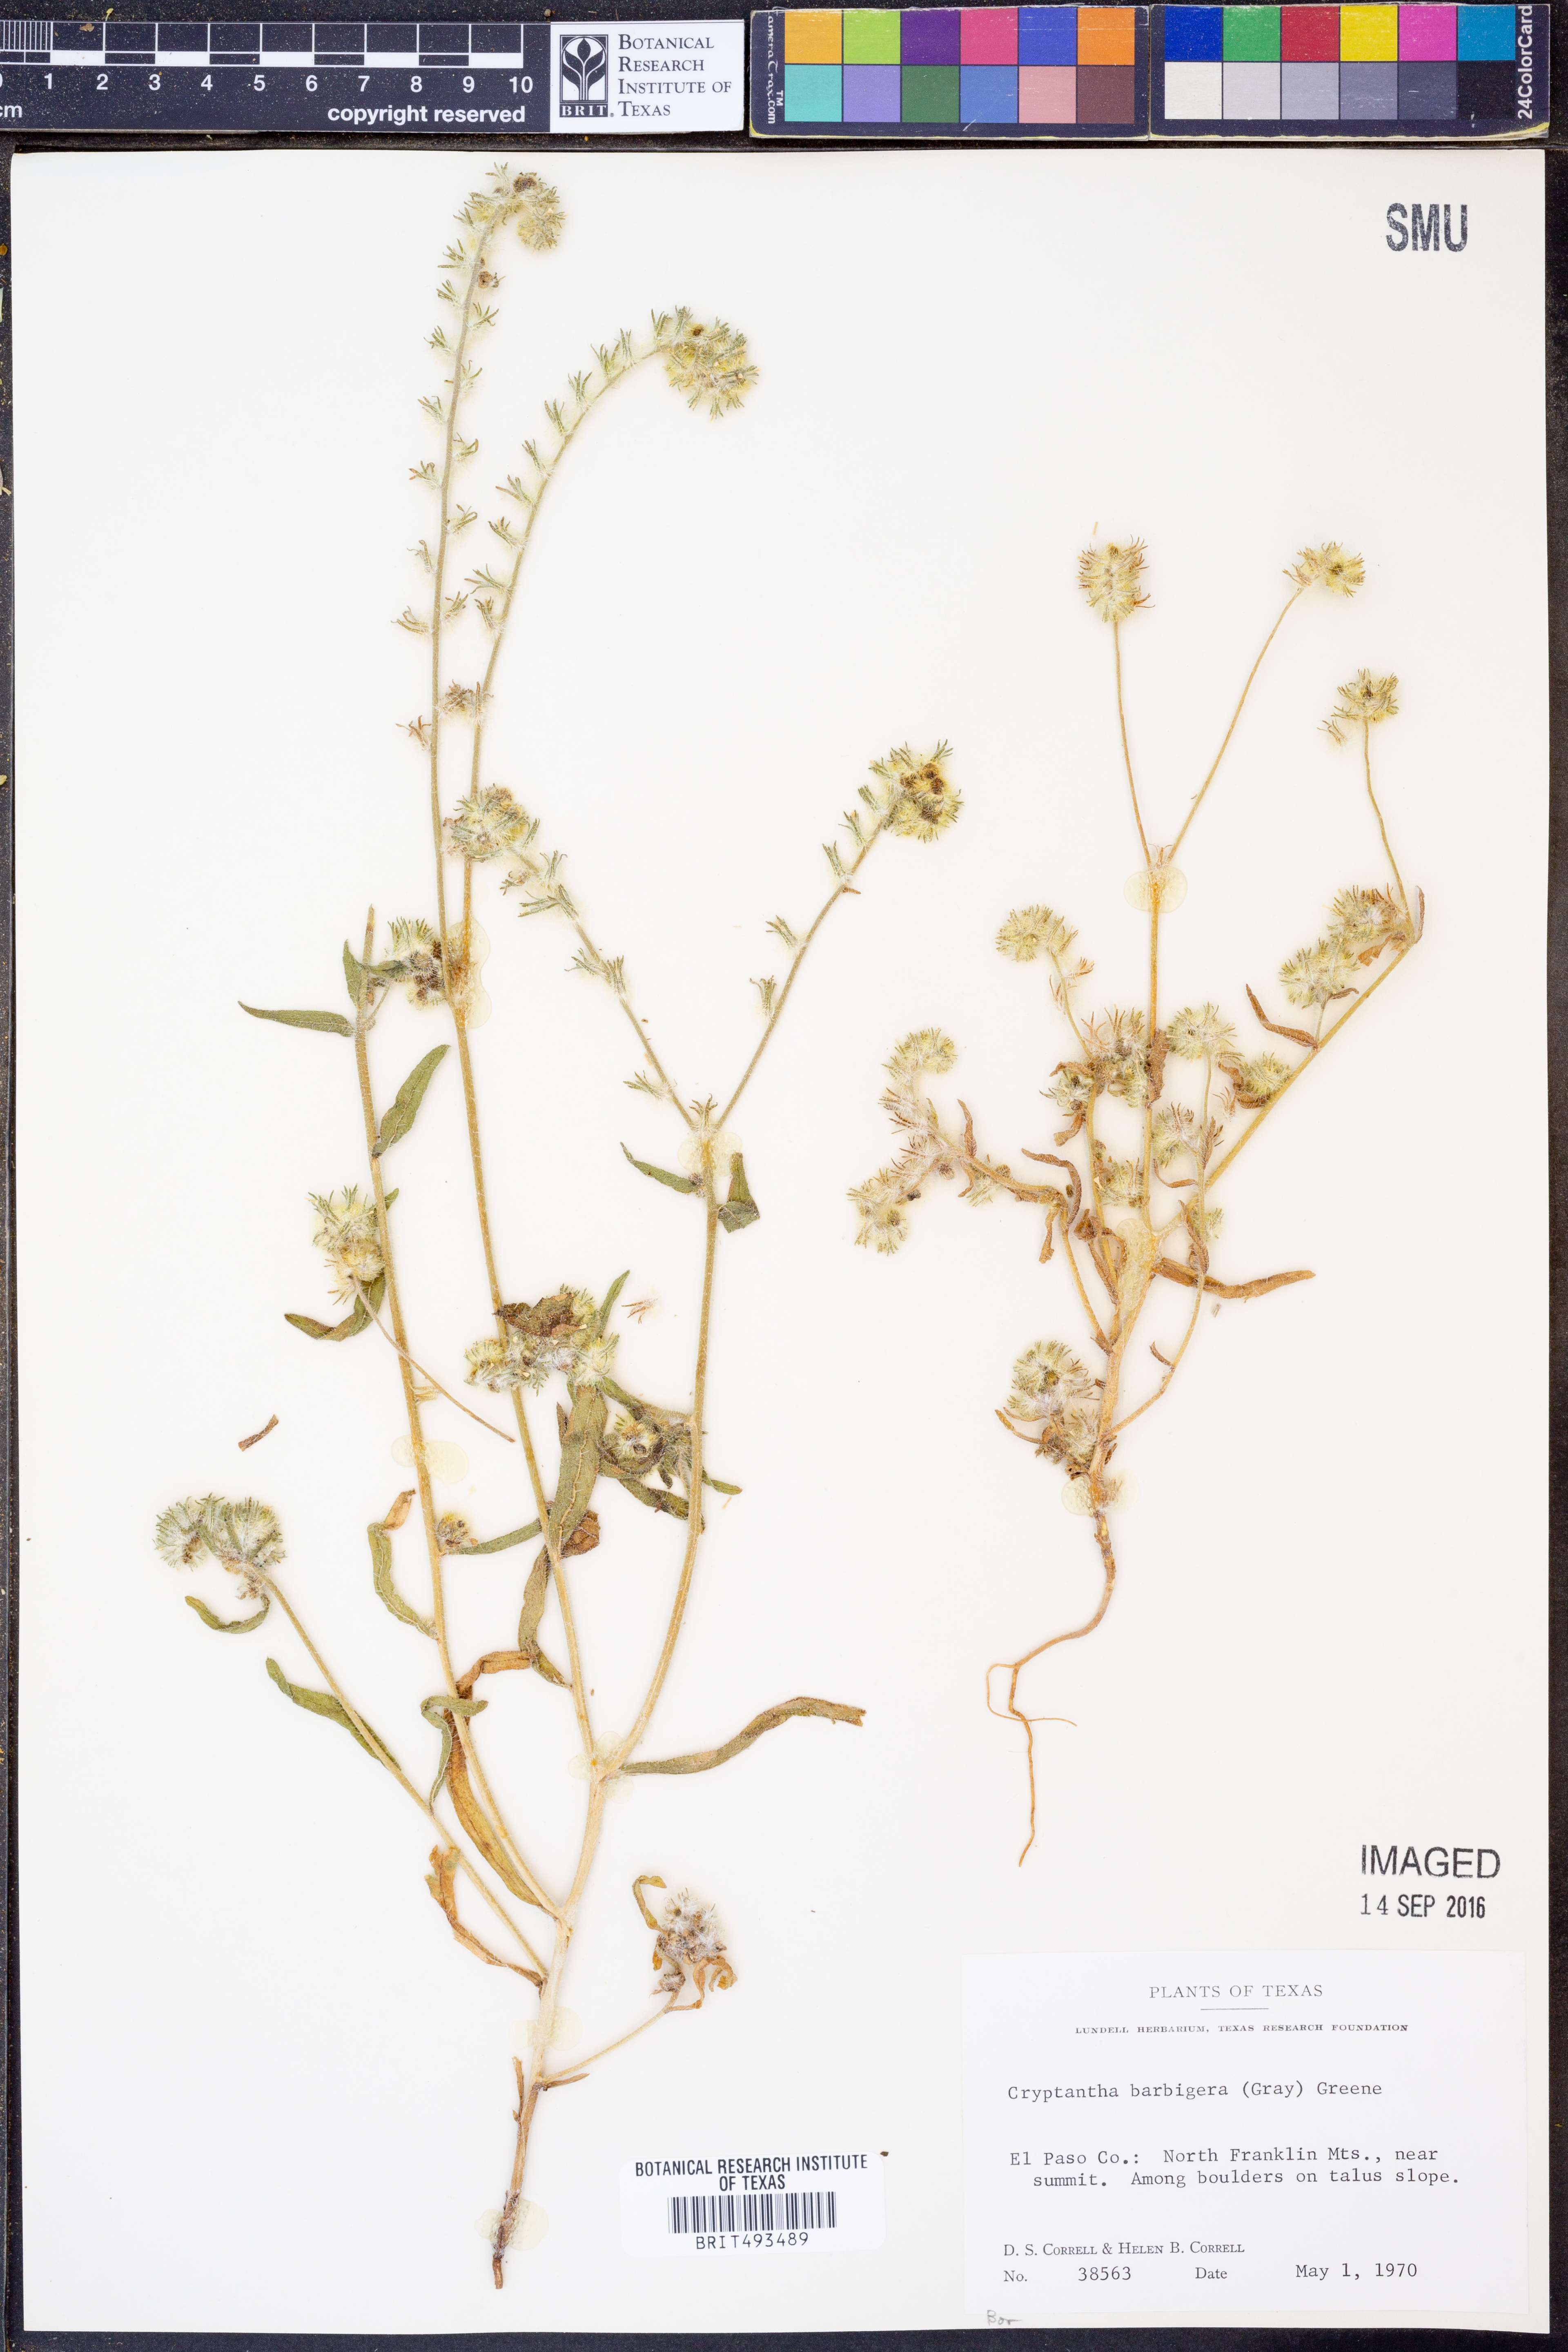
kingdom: Plantae
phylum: Tracheophyta
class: Magnoliopsida
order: Boraginales
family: Boraginaceae
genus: Cryptantha
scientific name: Cryptantha barbigera
